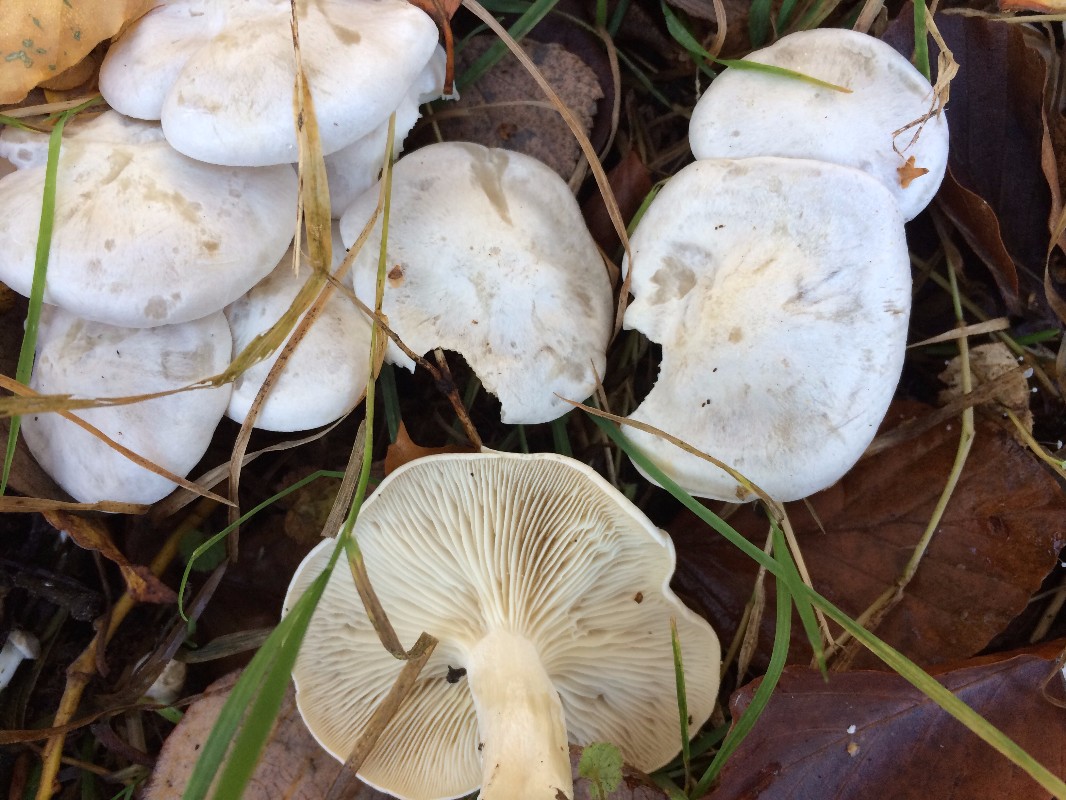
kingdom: Fungi
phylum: Basidiomycota
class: Agaricomycetes
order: Agaricales
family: Tricholomataceae
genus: Leucocybe
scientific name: Leucocybe connata
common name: knippe-tragthat
